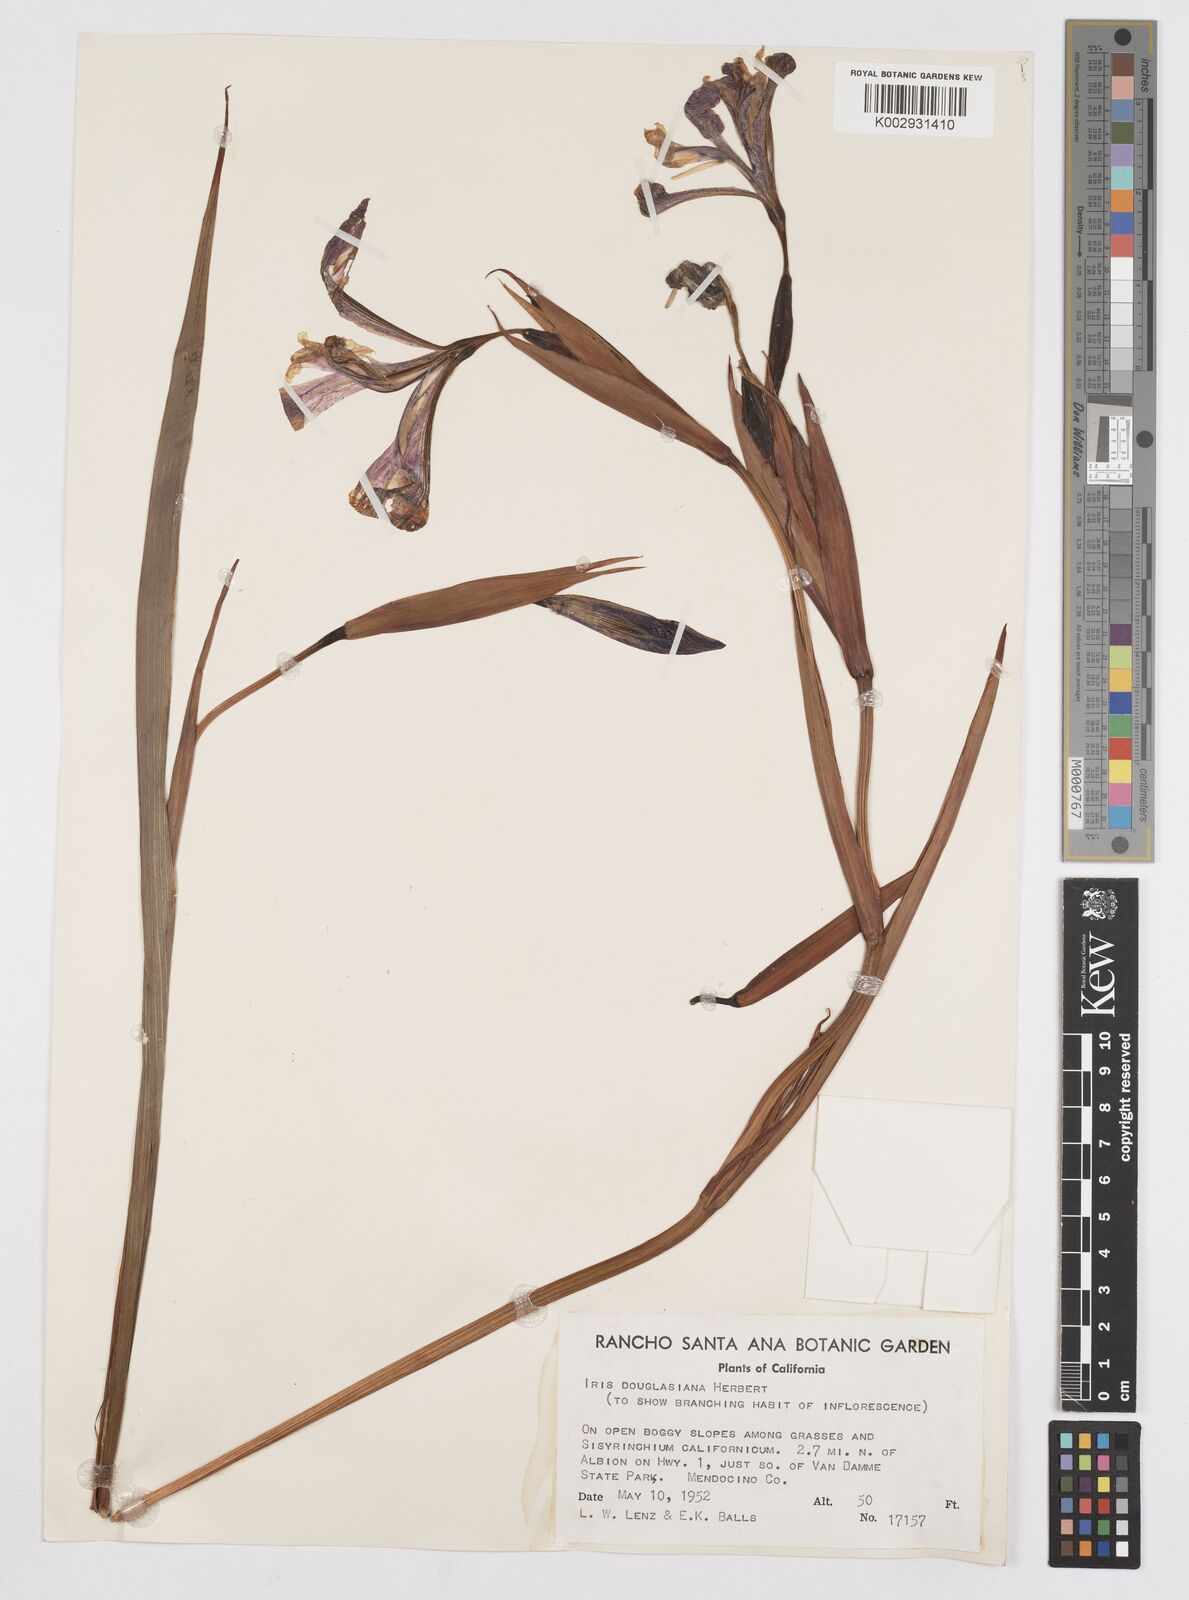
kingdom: Plantae
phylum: Tracheophyta
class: Liliopsida
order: Asparagales
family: Iridaceae
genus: Iris
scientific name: Iris douglasiana
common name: Marin iris
